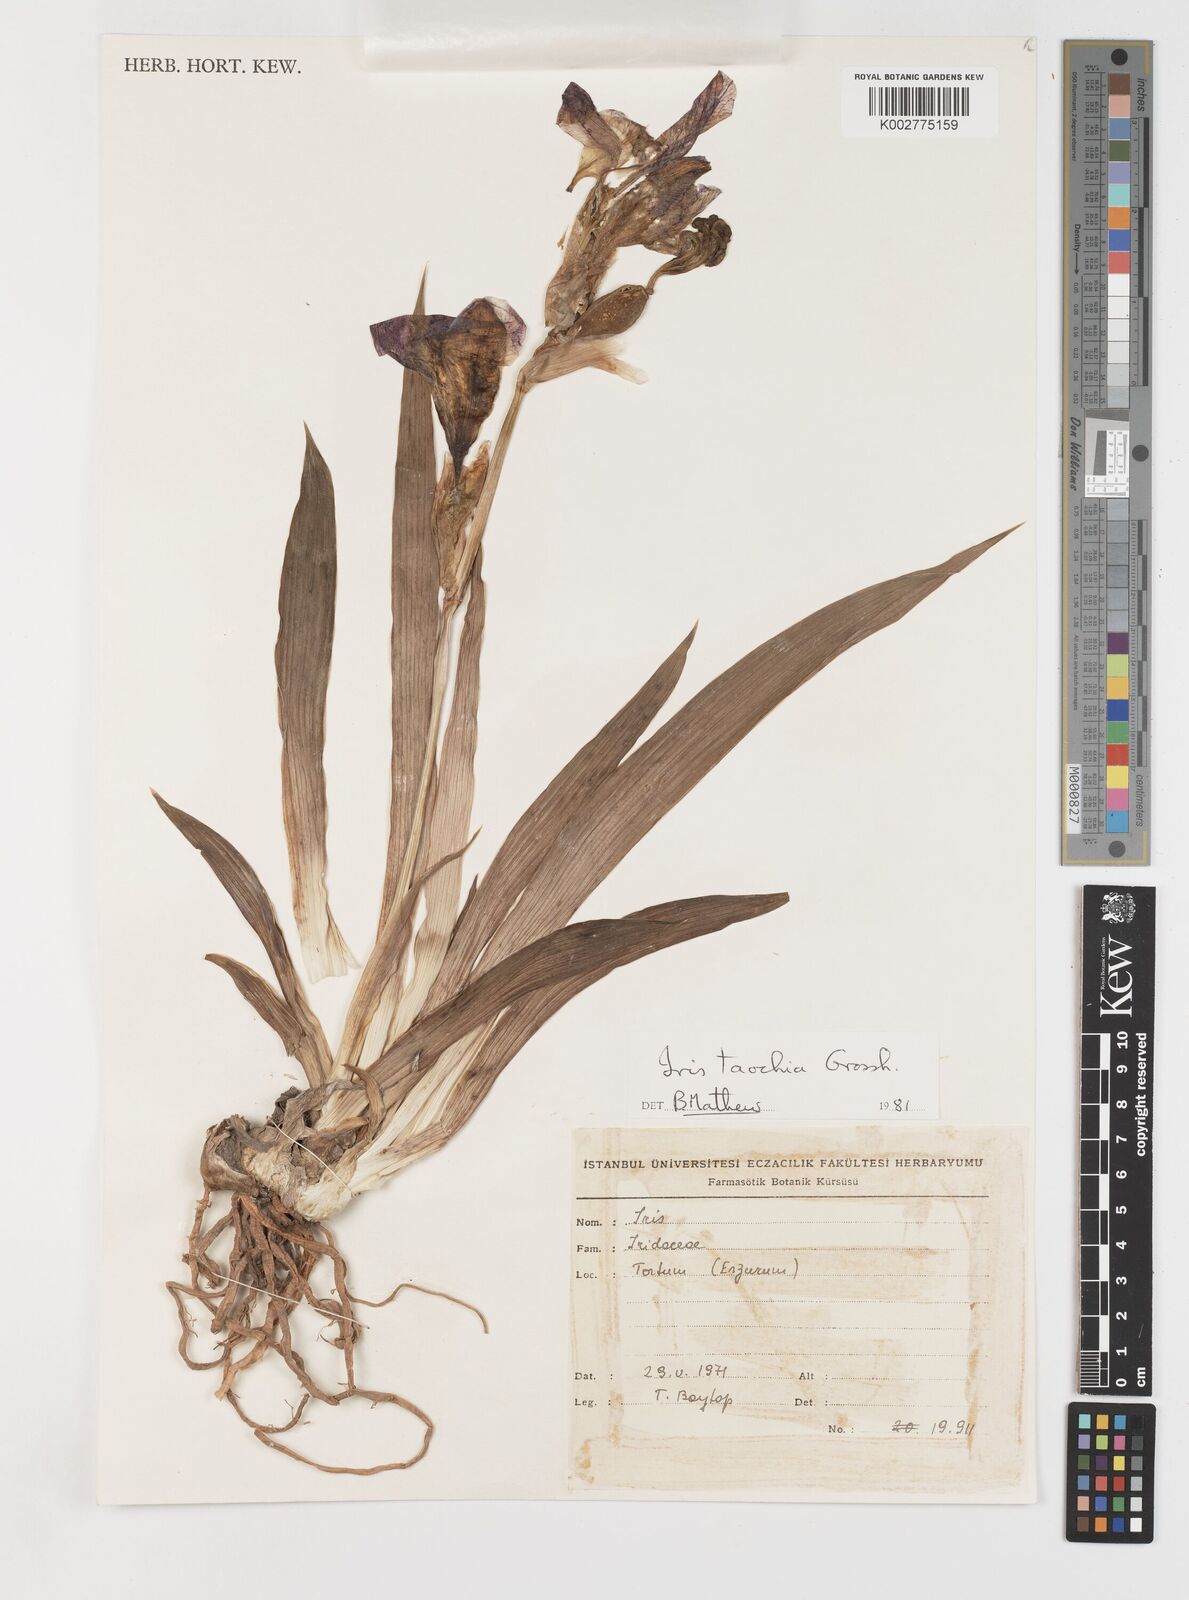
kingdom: Plantae
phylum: Tracheophyta
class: Liliopsida
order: Asparagales
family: Iridaceae
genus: Iris
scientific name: Iris taochia
